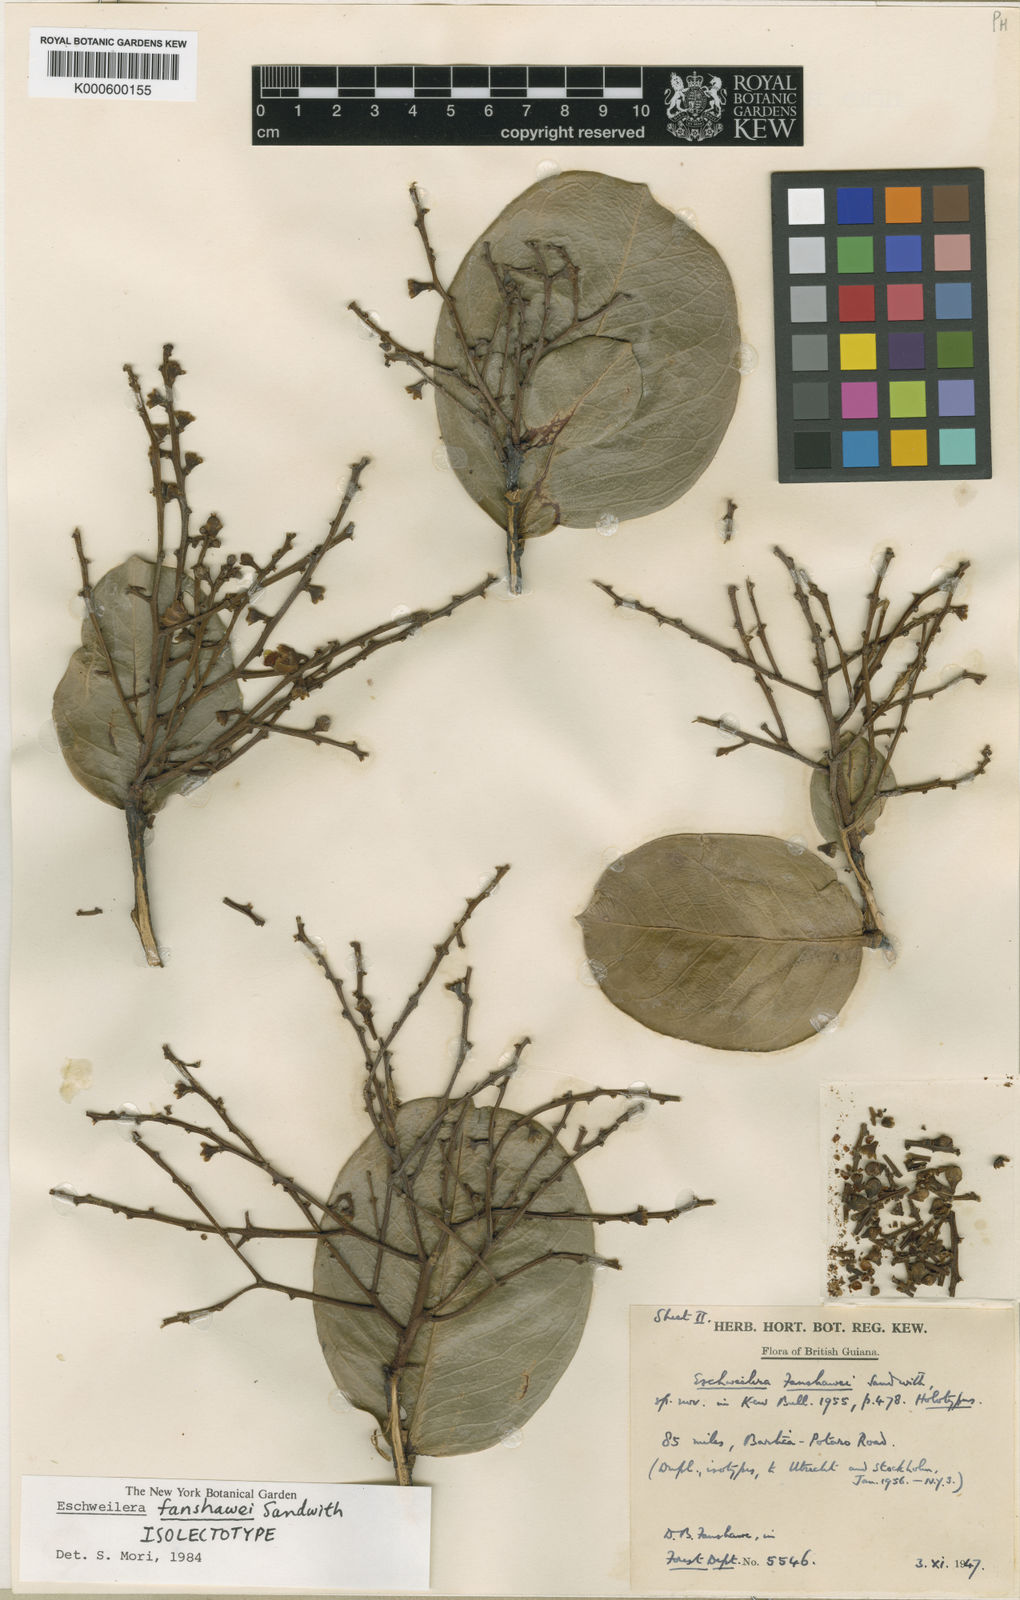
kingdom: Plantae
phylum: Tracheophyta
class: Magnoliopsida
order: Ericales
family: Lecythidaceae
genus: Eschweilera
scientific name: Eschweilera fanshawei
